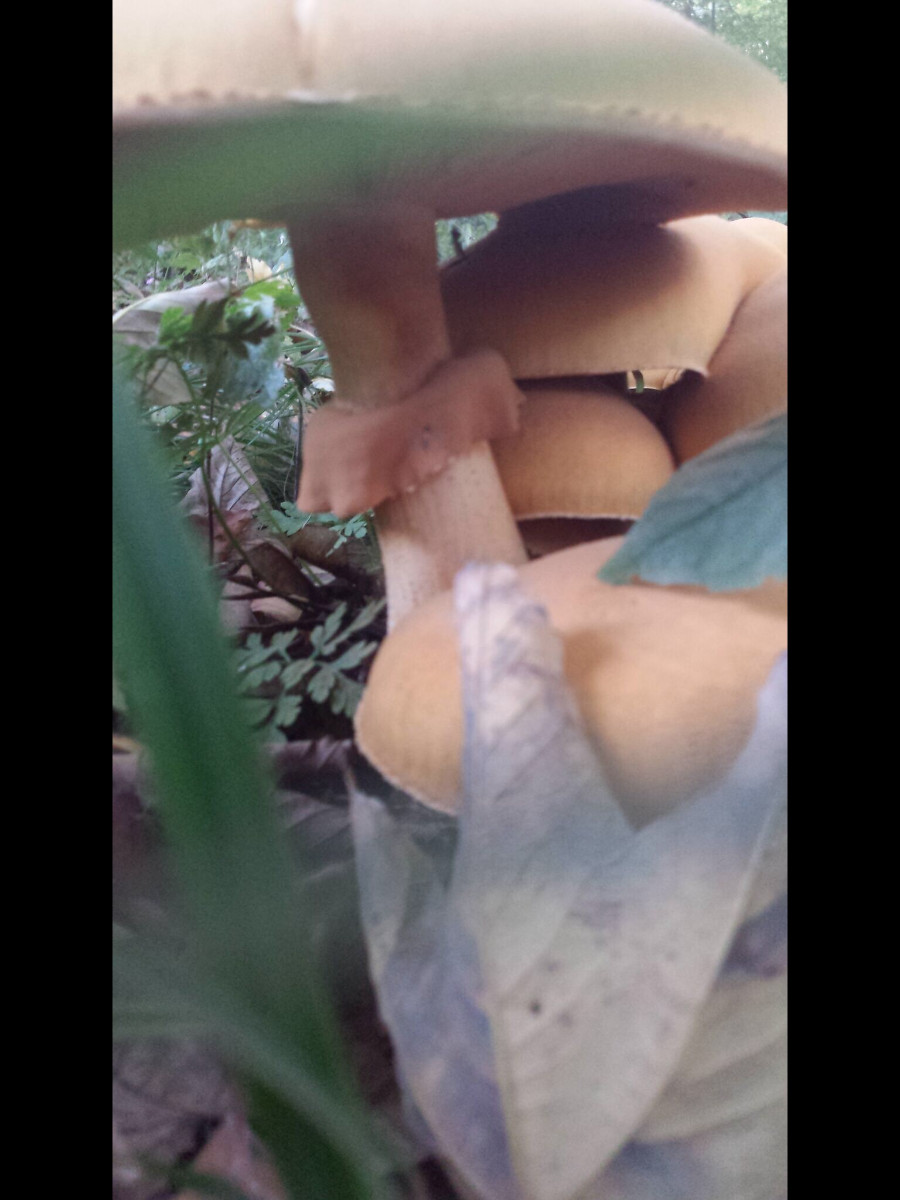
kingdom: Fungi
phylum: Basidiomycota
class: Agaricomycetes
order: Agaricales
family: Tricholomataceae
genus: Phaeolepiota
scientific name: Phaeolepiota aurea
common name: gyldenhat
